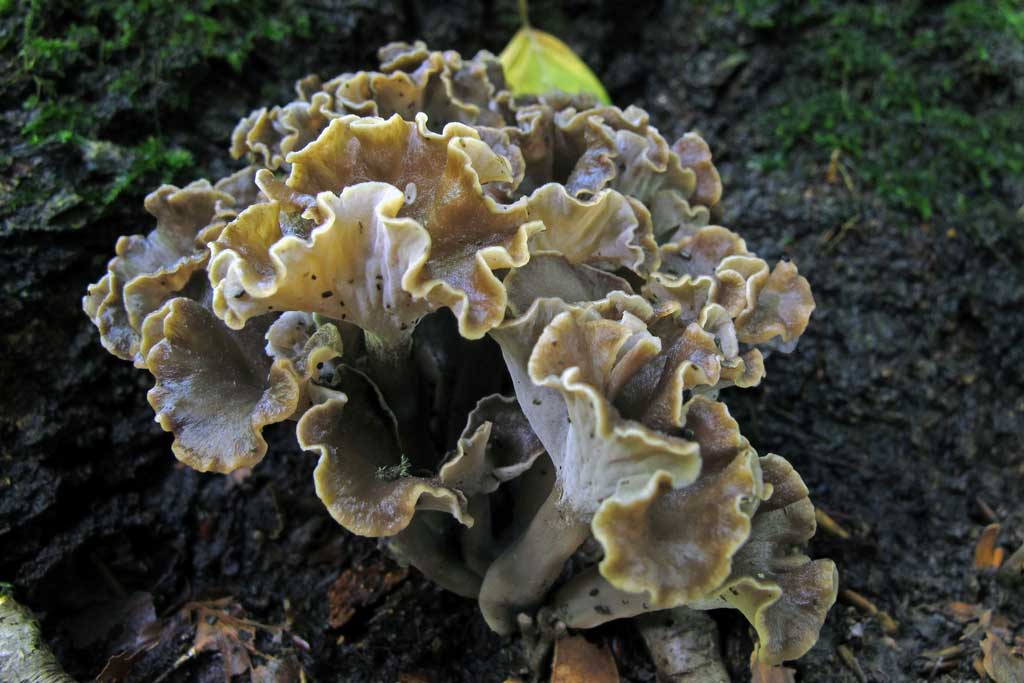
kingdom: Fungi
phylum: Basidiomycota
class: Agaricomycetes
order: Cantharellales
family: Hydnaceae
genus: Craterellus
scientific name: Craterellus undulatus
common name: liden kantarel
